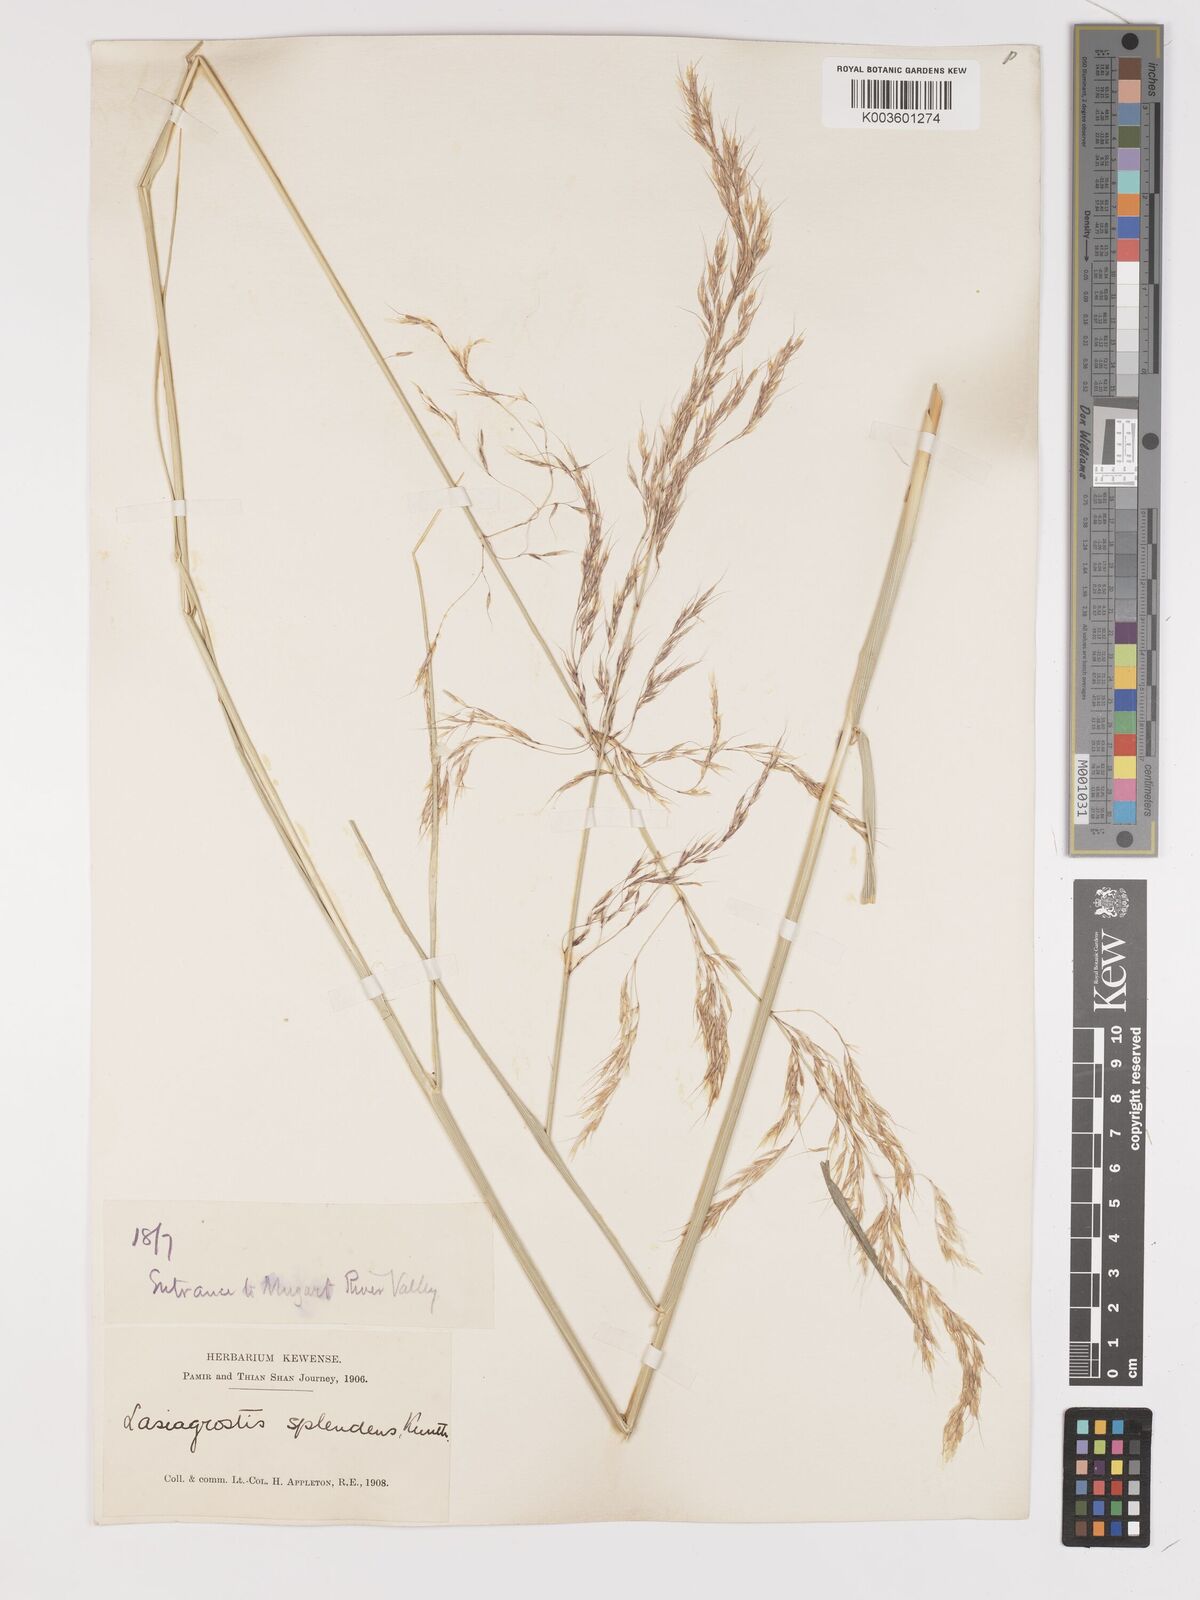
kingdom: Plantae
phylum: Tracheophyta
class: Liliopsida
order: Poales
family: Poaceae
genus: Neotrinia
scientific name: Neotrinia splendens
